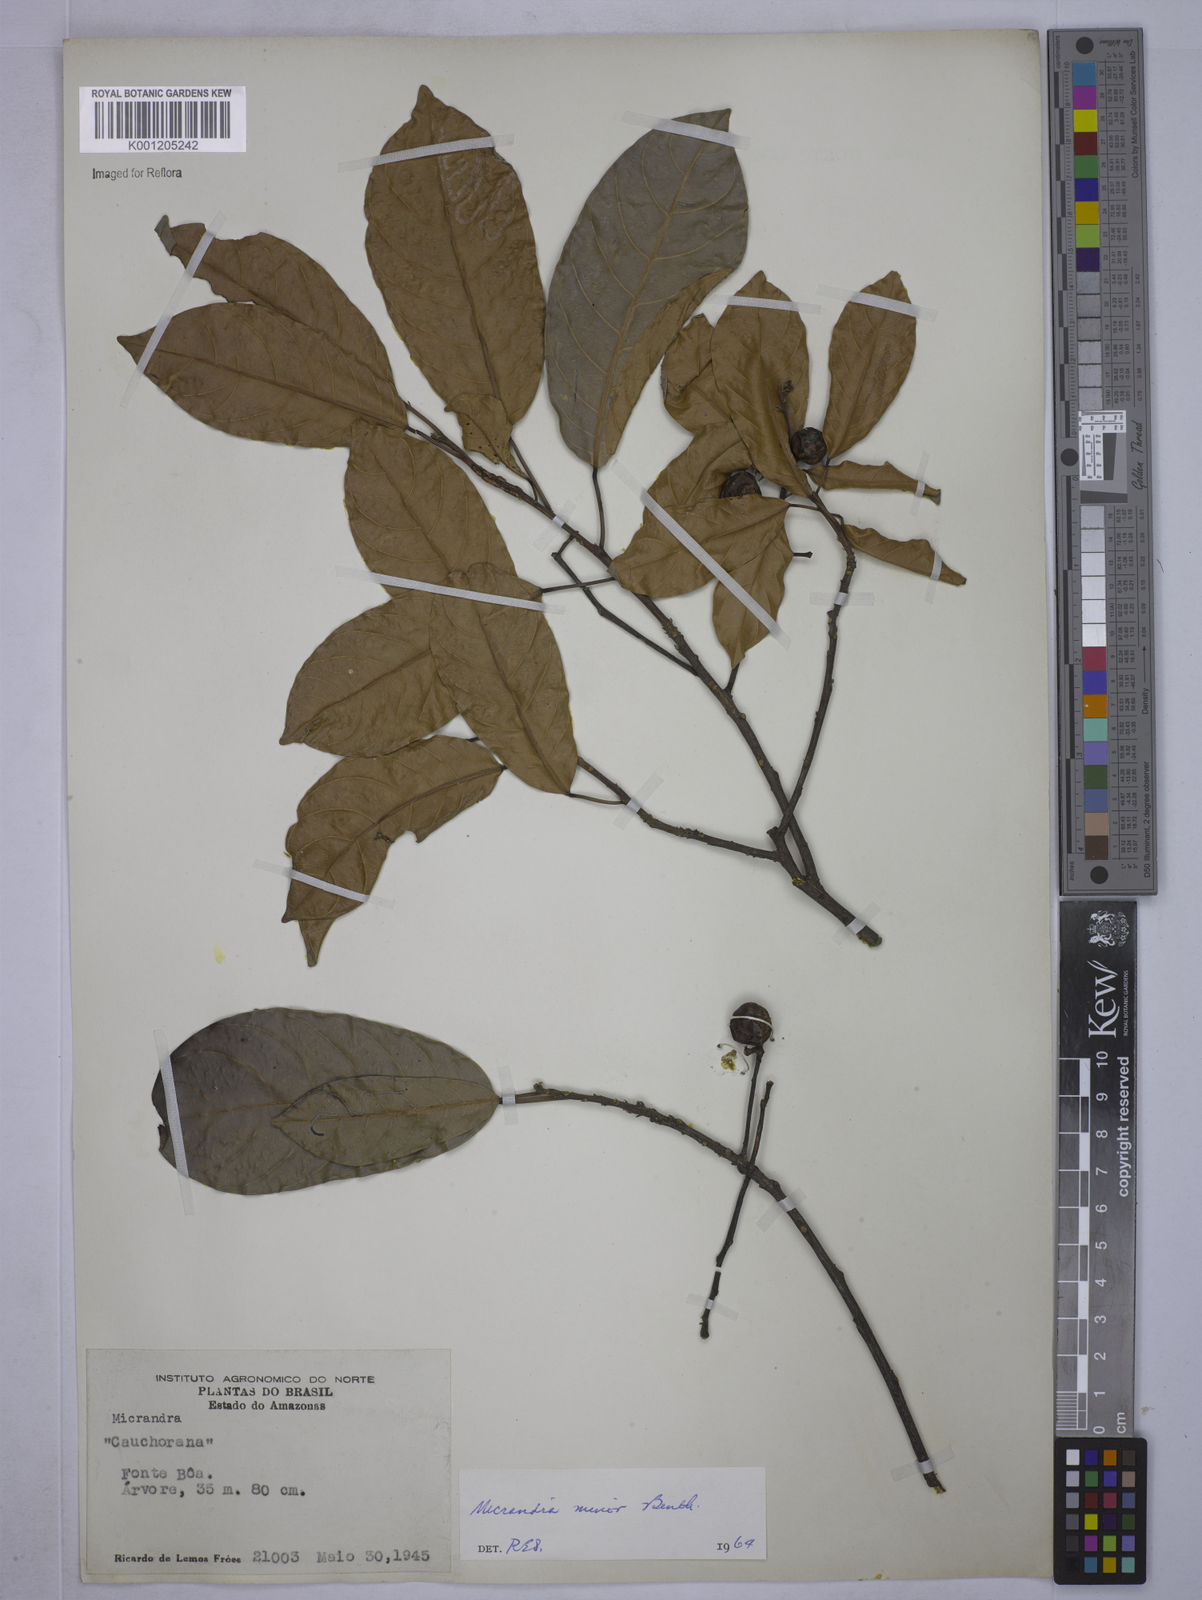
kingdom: Plantae
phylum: Tracheophyta
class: Magnoliopsida
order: Malpighiales
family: Euphorbiaceae
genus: Micrandra
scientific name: Micrandra minor
